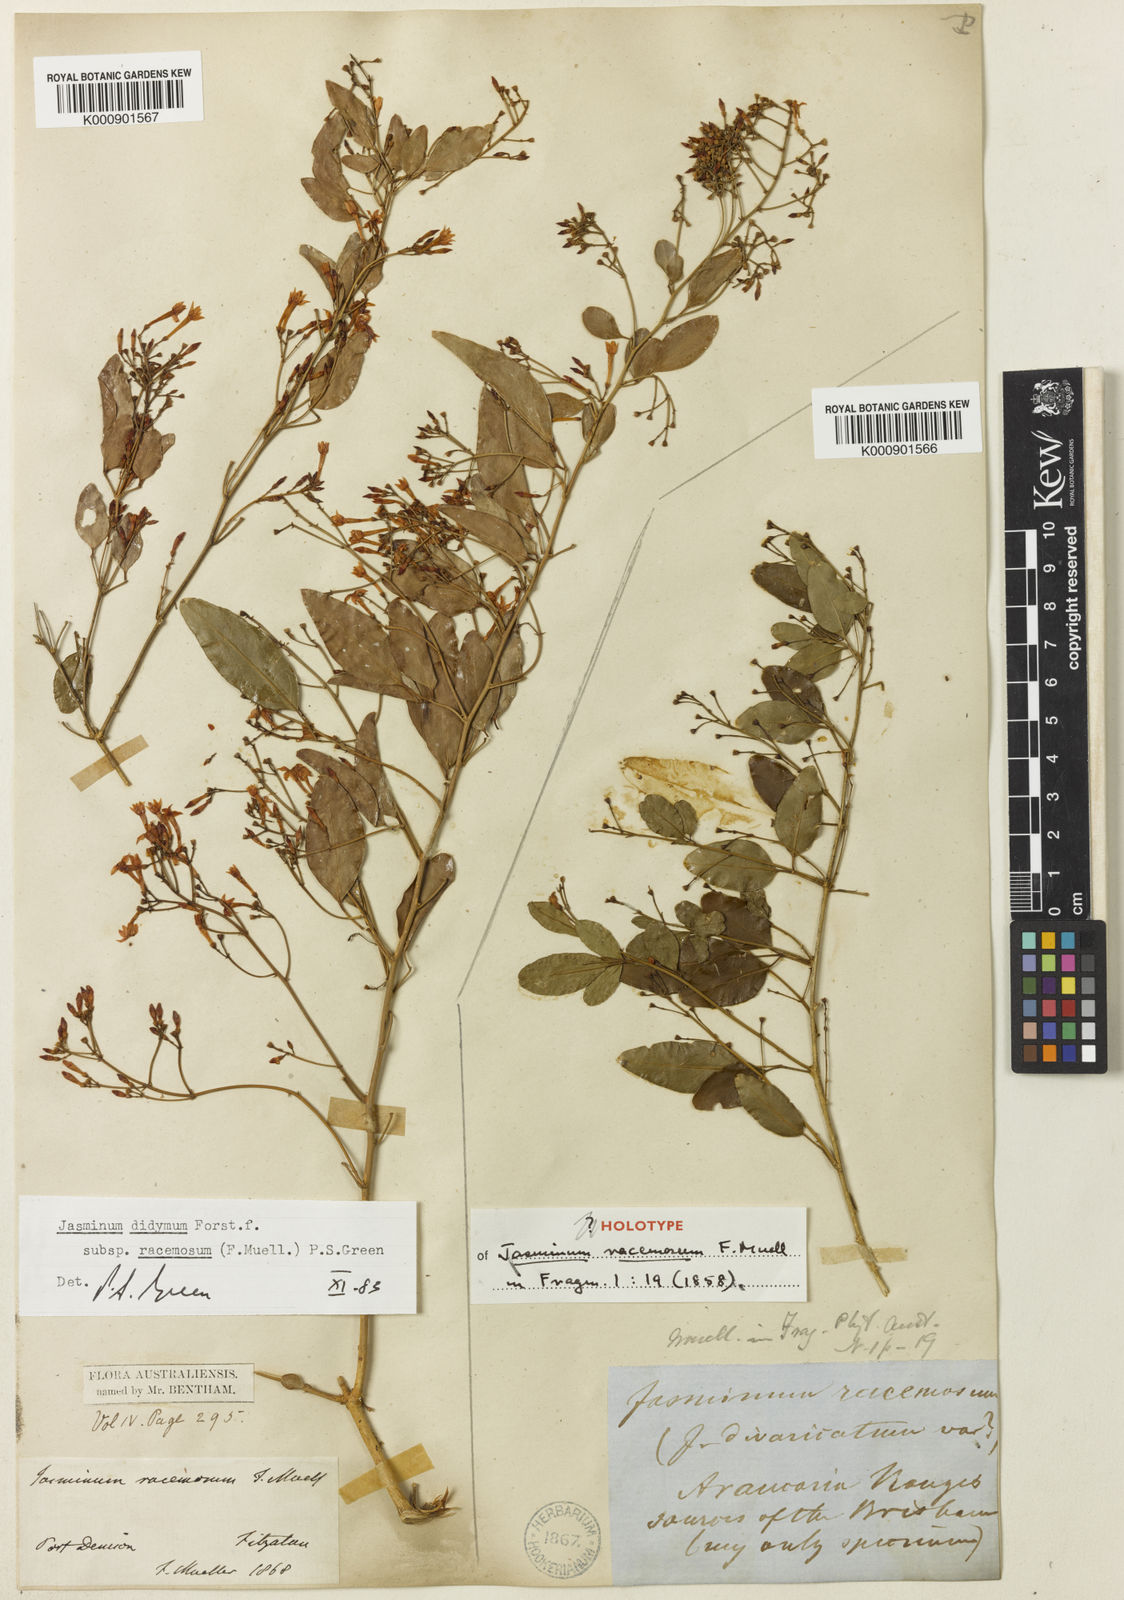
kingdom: Plantae
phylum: Tracheophyta
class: Magnoliopsida
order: Lamiales
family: Oleaceae
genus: Jasminum
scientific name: Jasminum didymum
